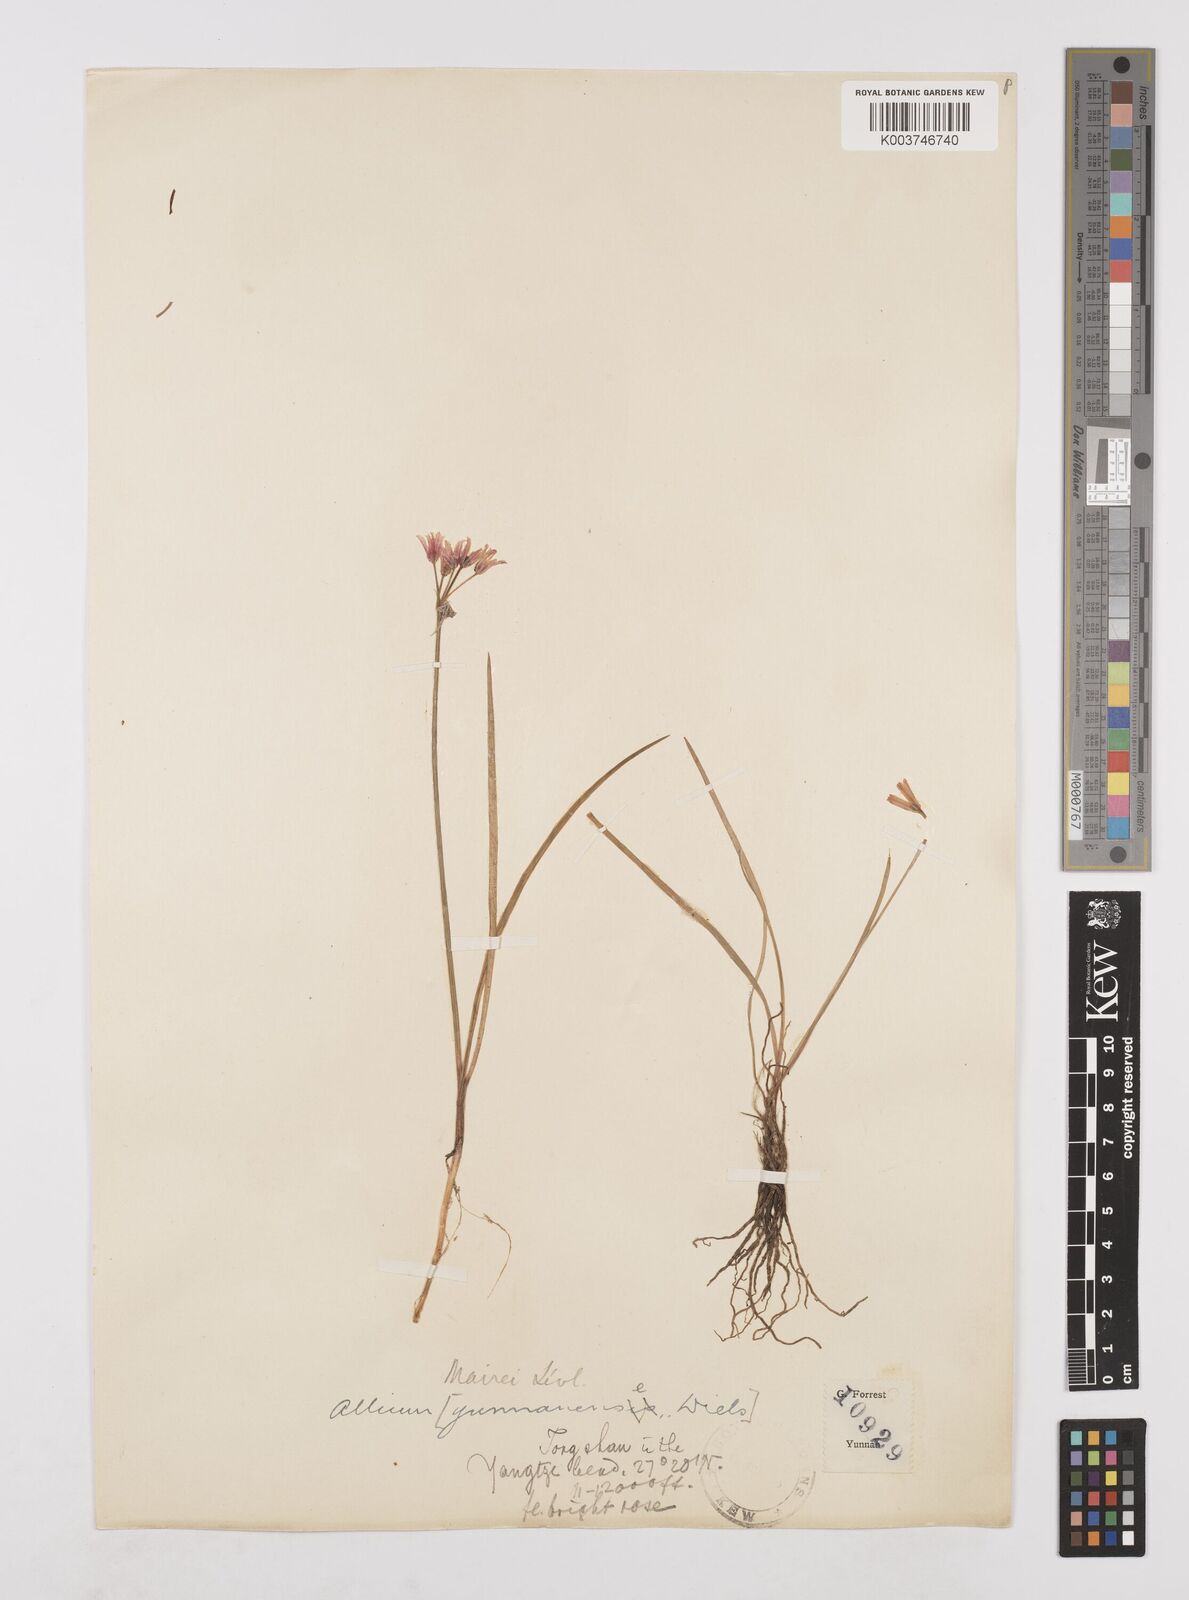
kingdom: Plantae
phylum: Tracheophyta
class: Liliopsida
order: Asparagales
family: Amaryllidaceae
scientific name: Amaryllidaceae
